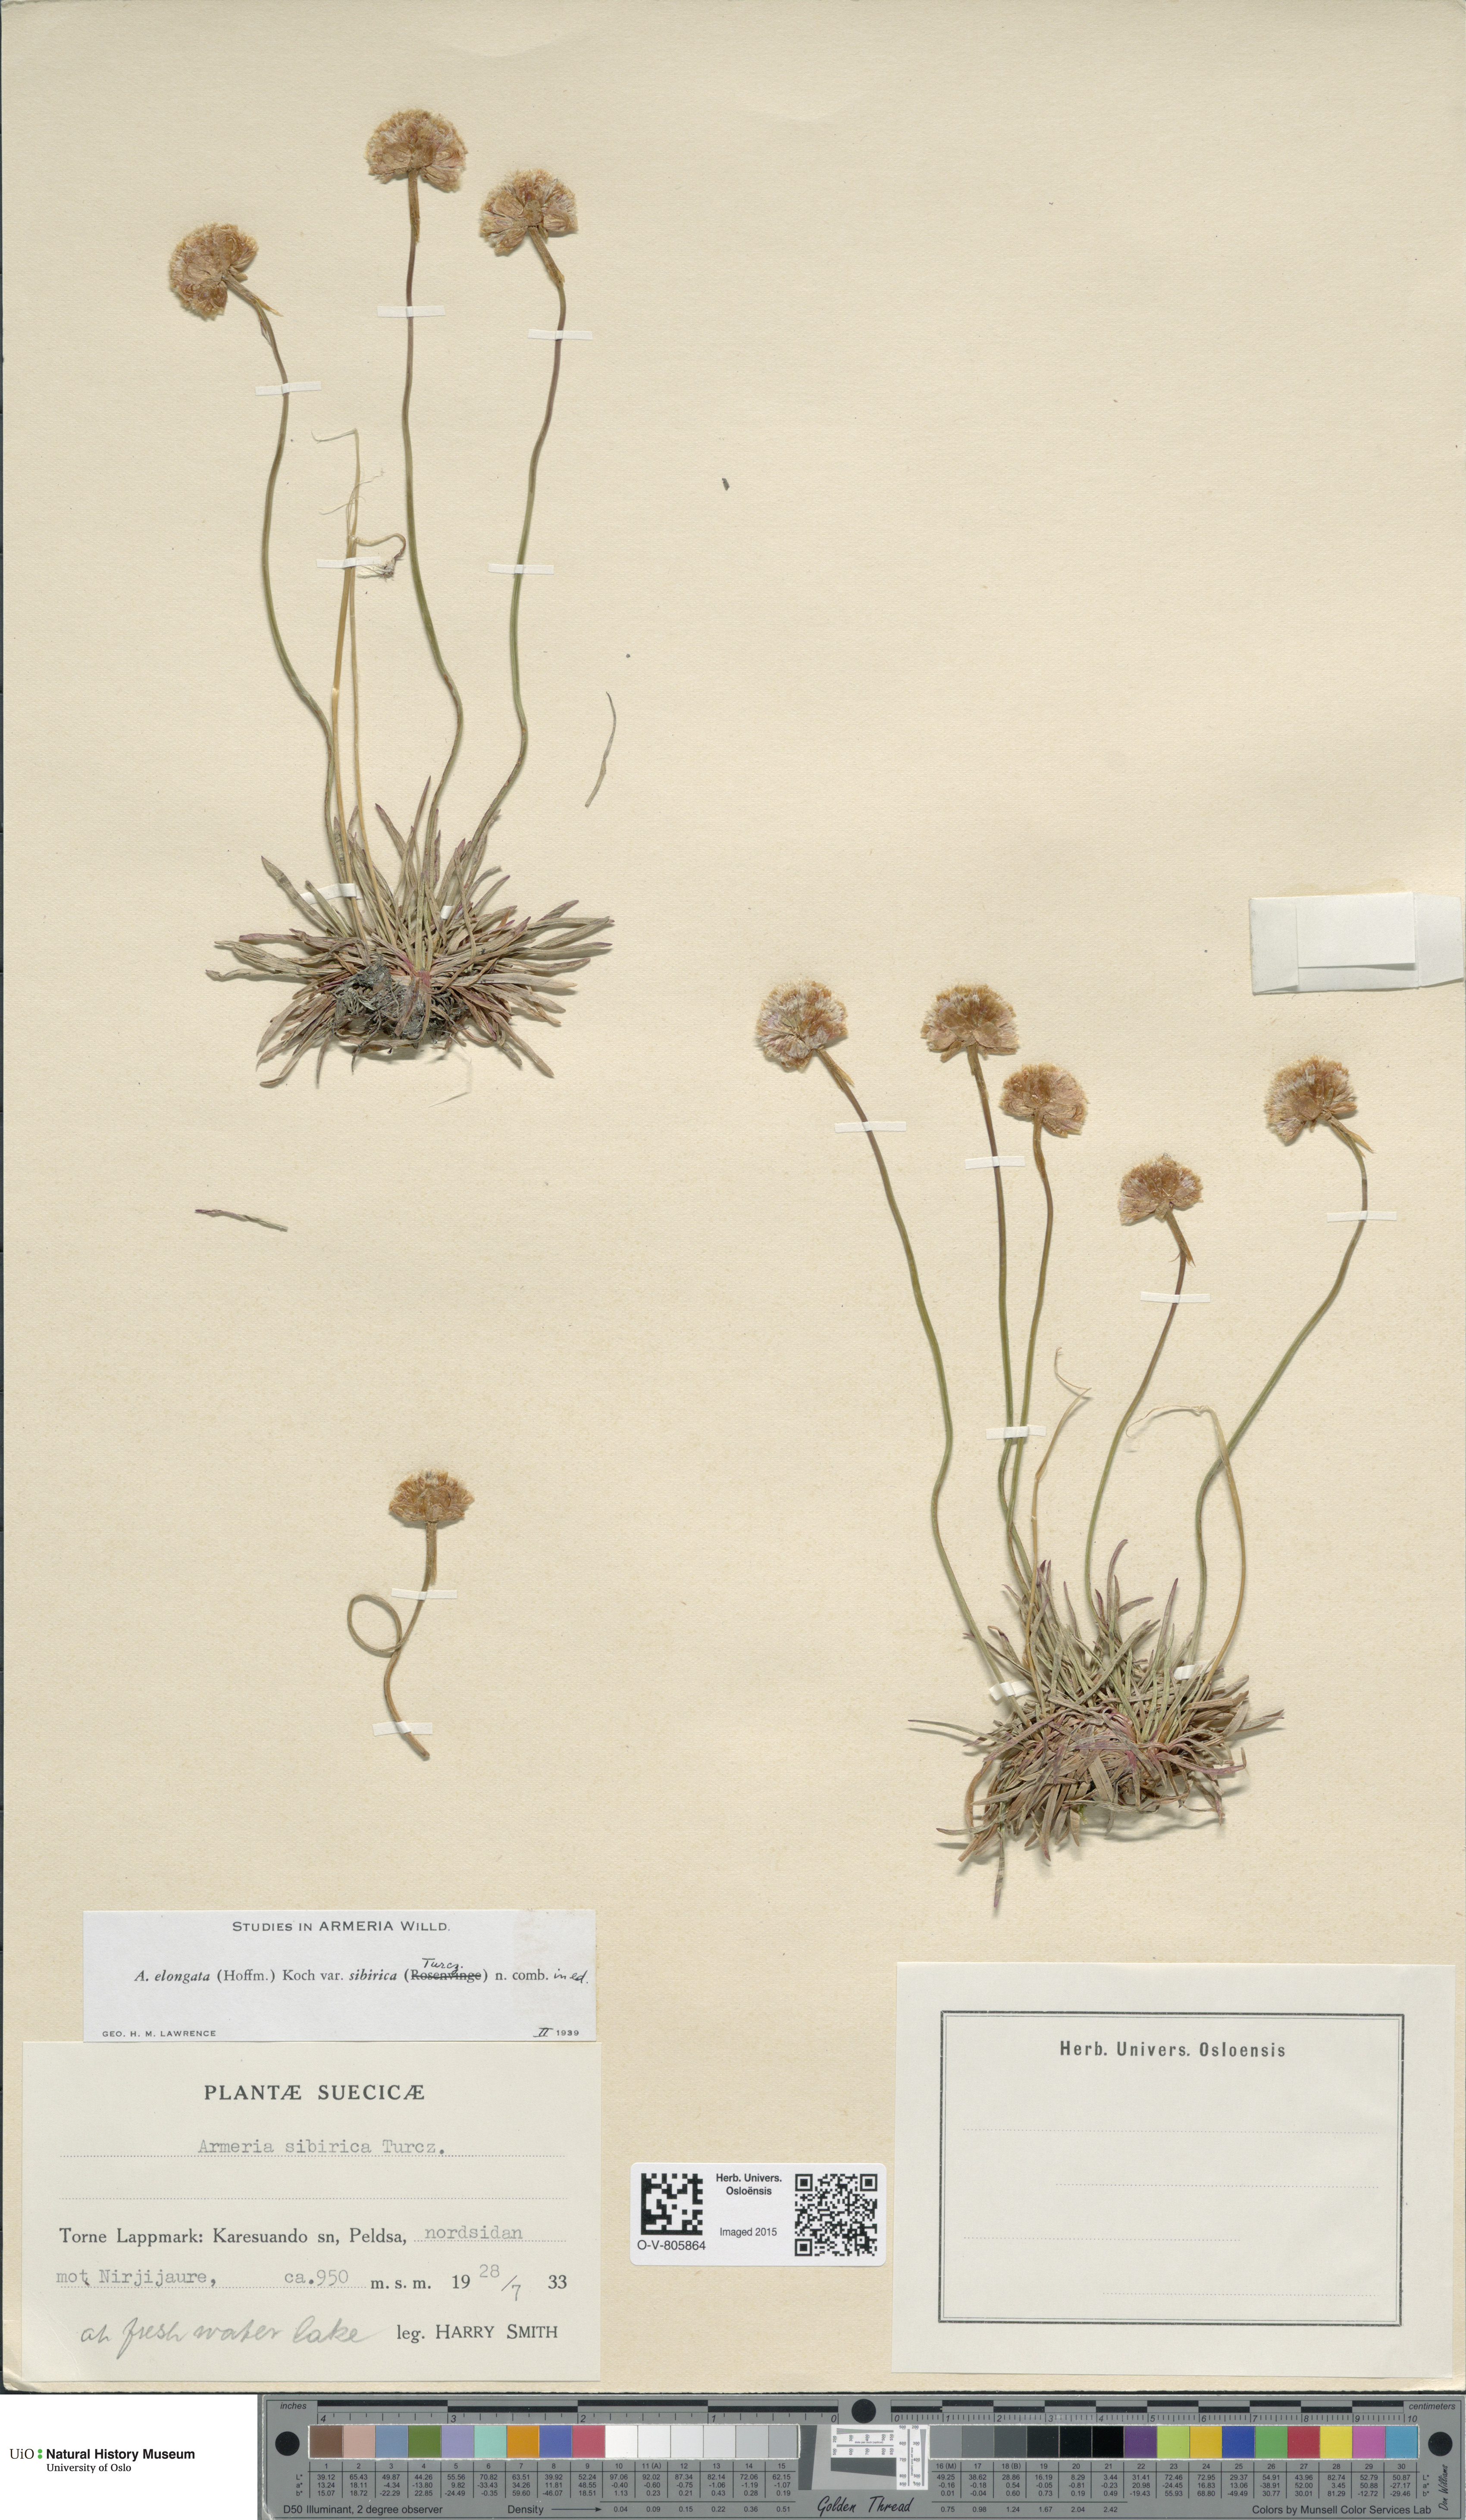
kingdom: Plantae
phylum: Tracheophyta
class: Magnoliopsida
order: Caryophyllales
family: Plumbaginaceae
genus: Armeria
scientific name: Armeria maritima
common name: Thrift
